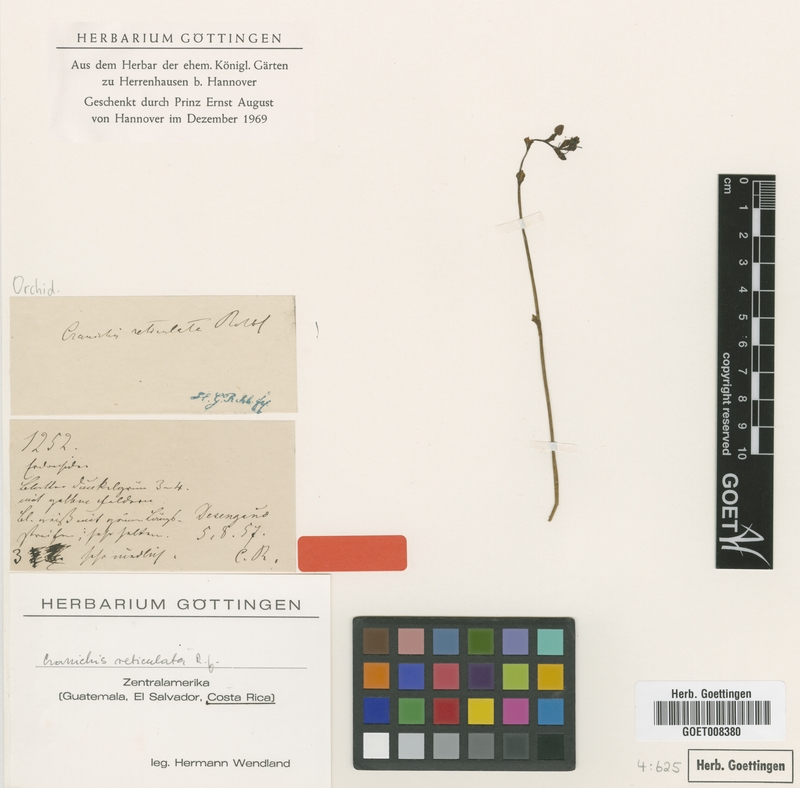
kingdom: Plantae
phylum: Tracheophyta
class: Liliopsida
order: Asparagales
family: Orchidaceae
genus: Cranichis
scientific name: Cranichis reticulata
